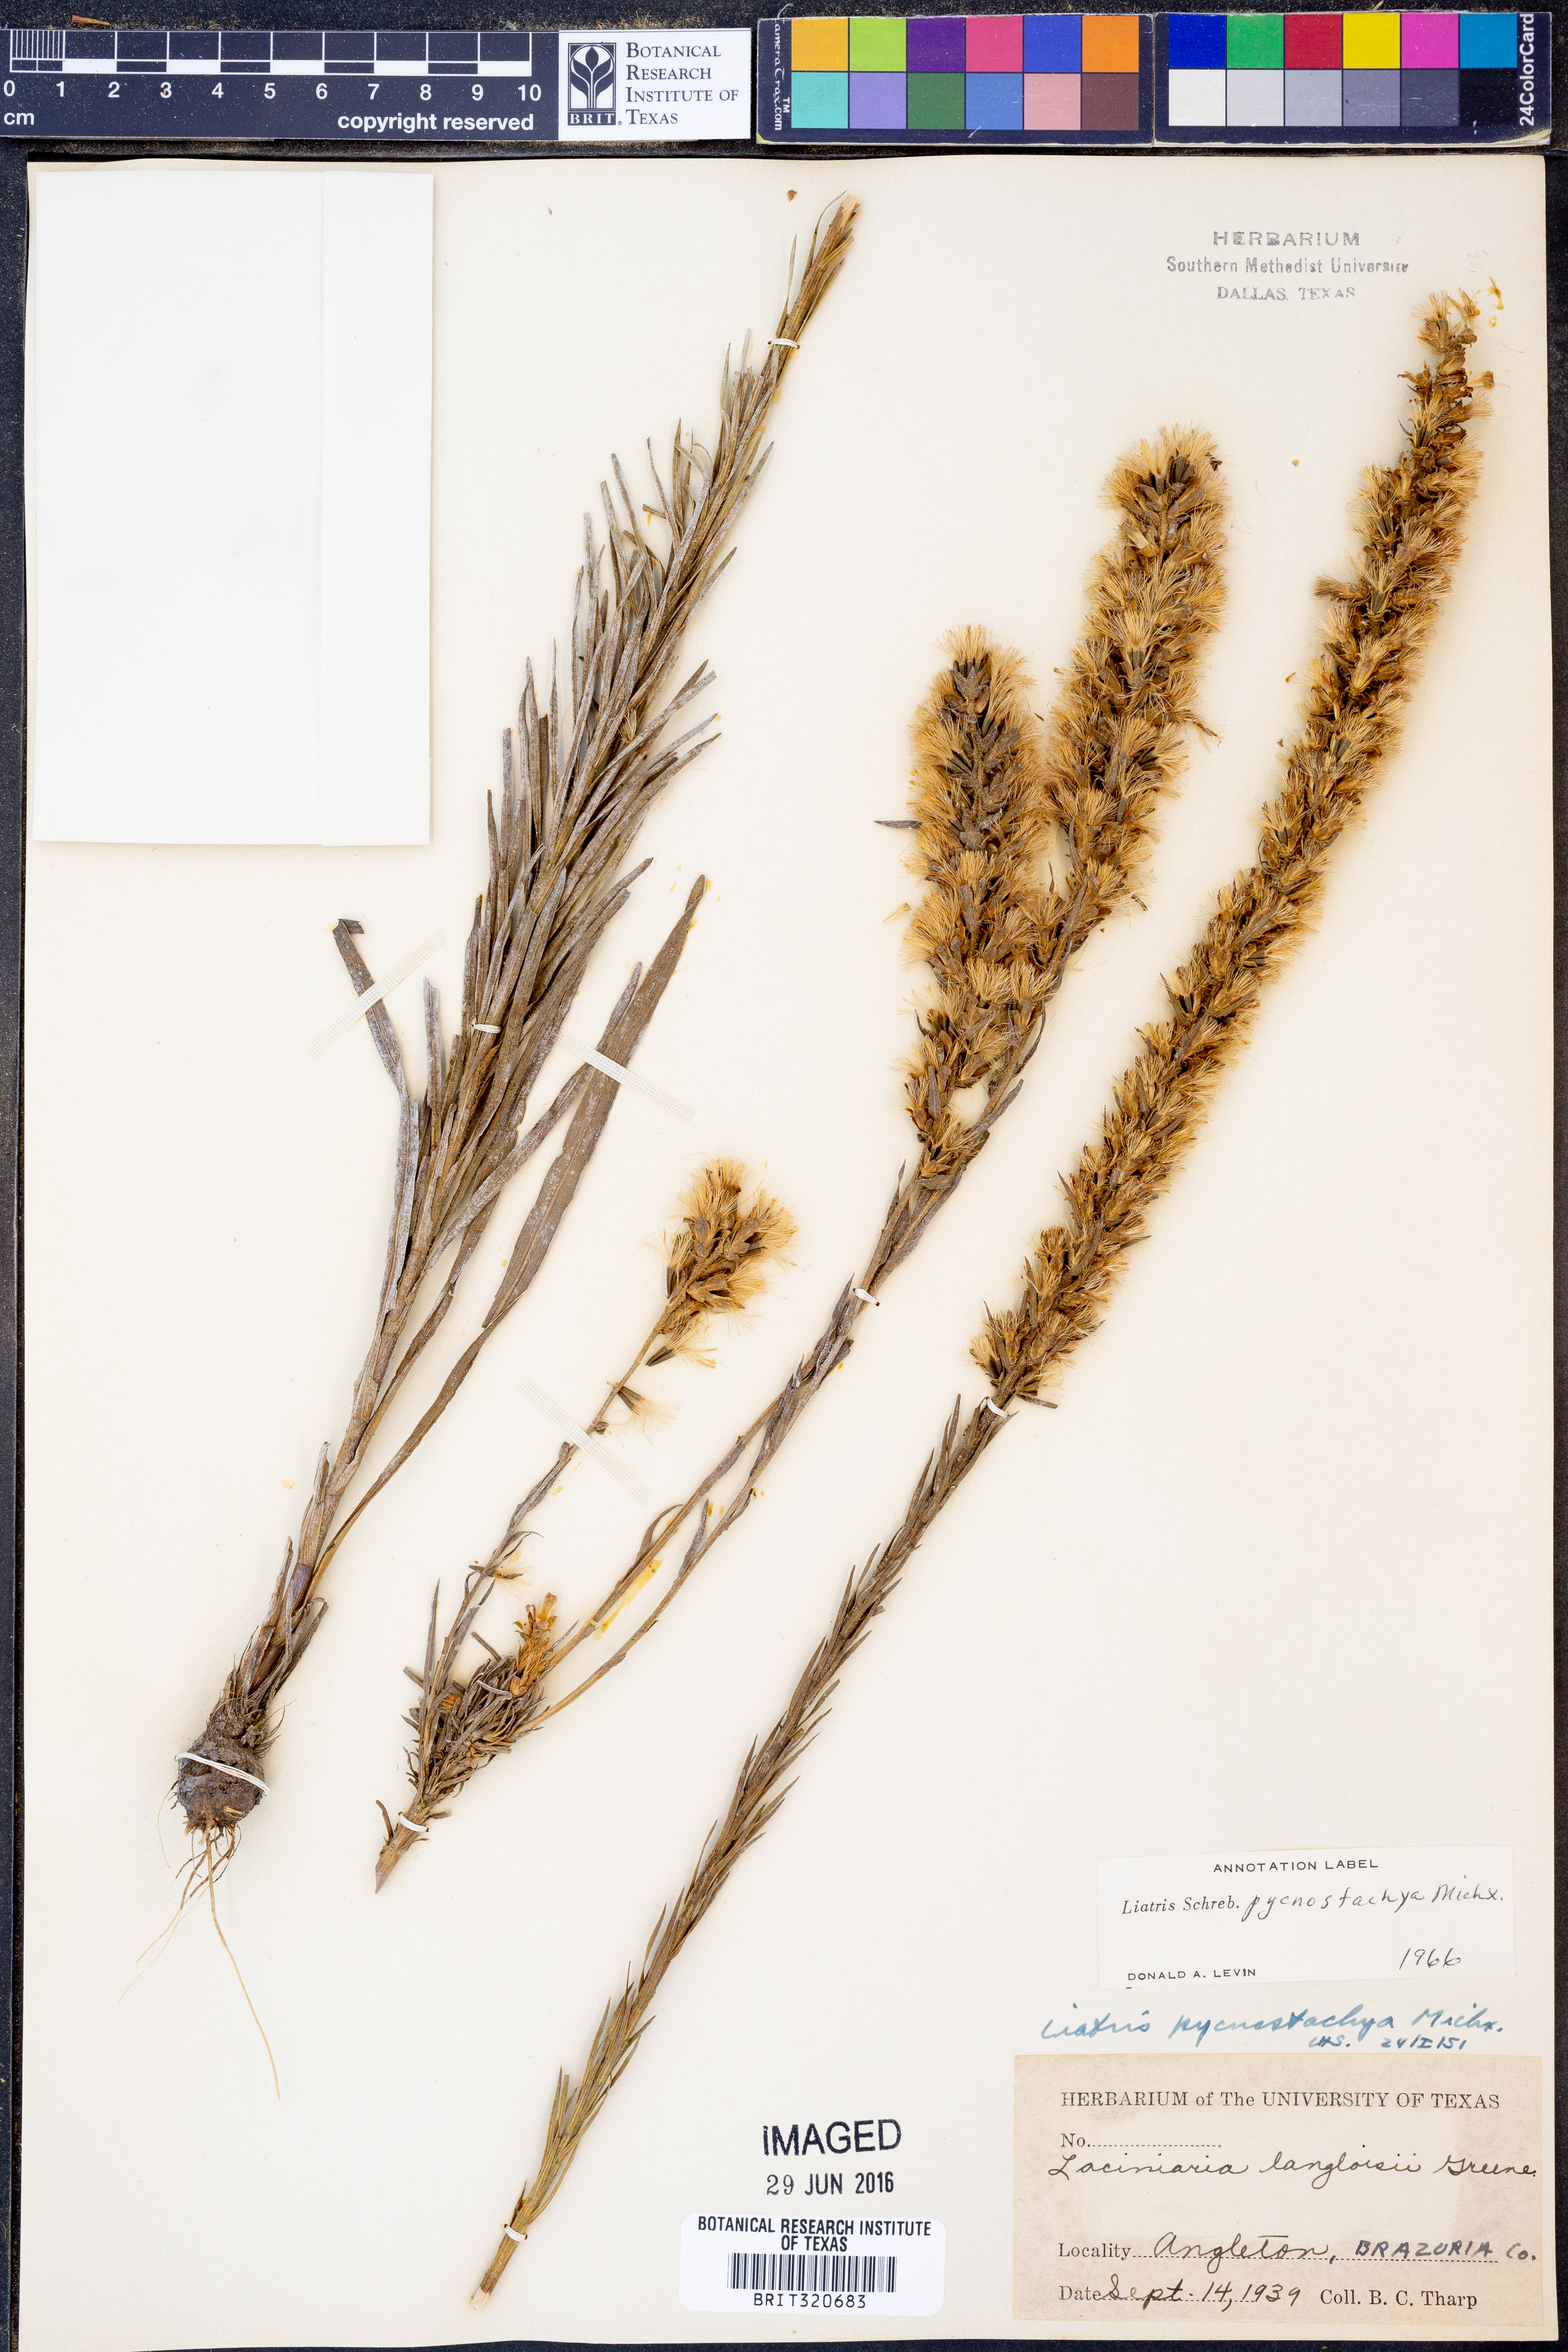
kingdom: Plantae
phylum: Tracheophyta
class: Magnoliopsida
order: Asterales
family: Asteraceae
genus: Liatris
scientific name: Liatris pycnostachya
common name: Cattail gayfeather
